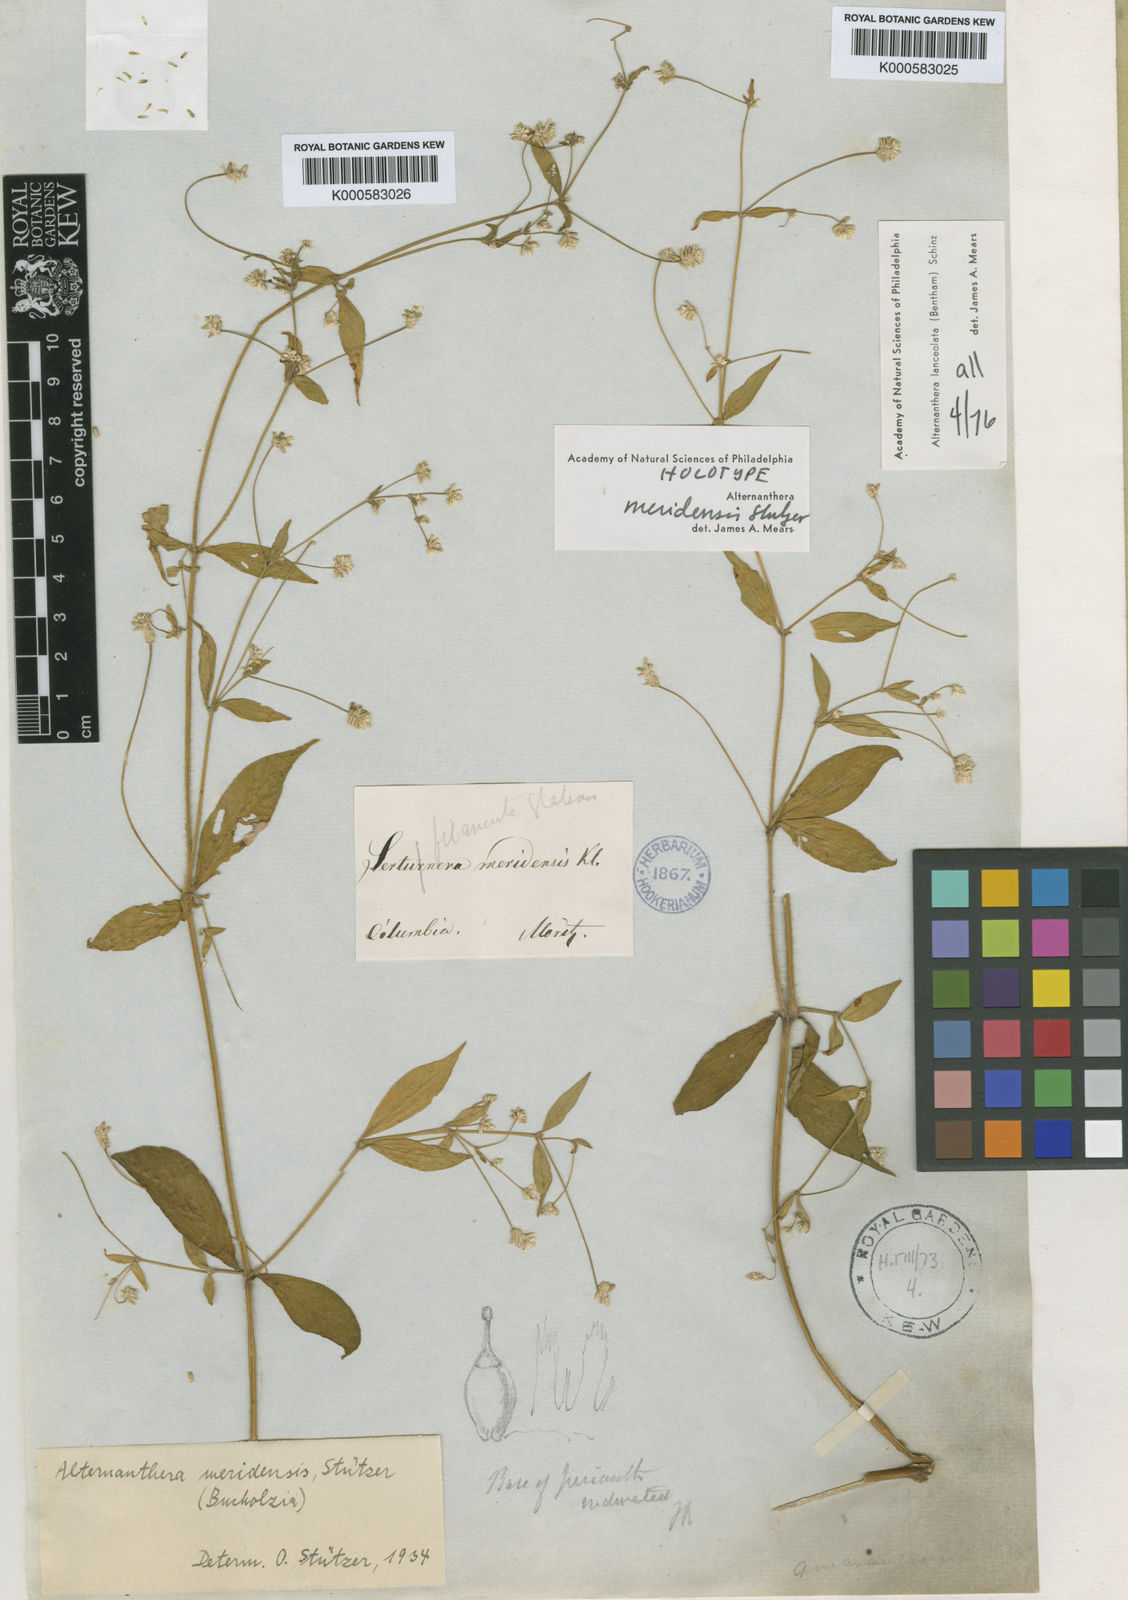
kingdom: Plantae
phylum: Tracheophyta
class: Magnoliopsida
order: Caryophyllales
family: Amaranthaceae
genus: Alternanthera
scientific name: Alternanthera lanceolata
